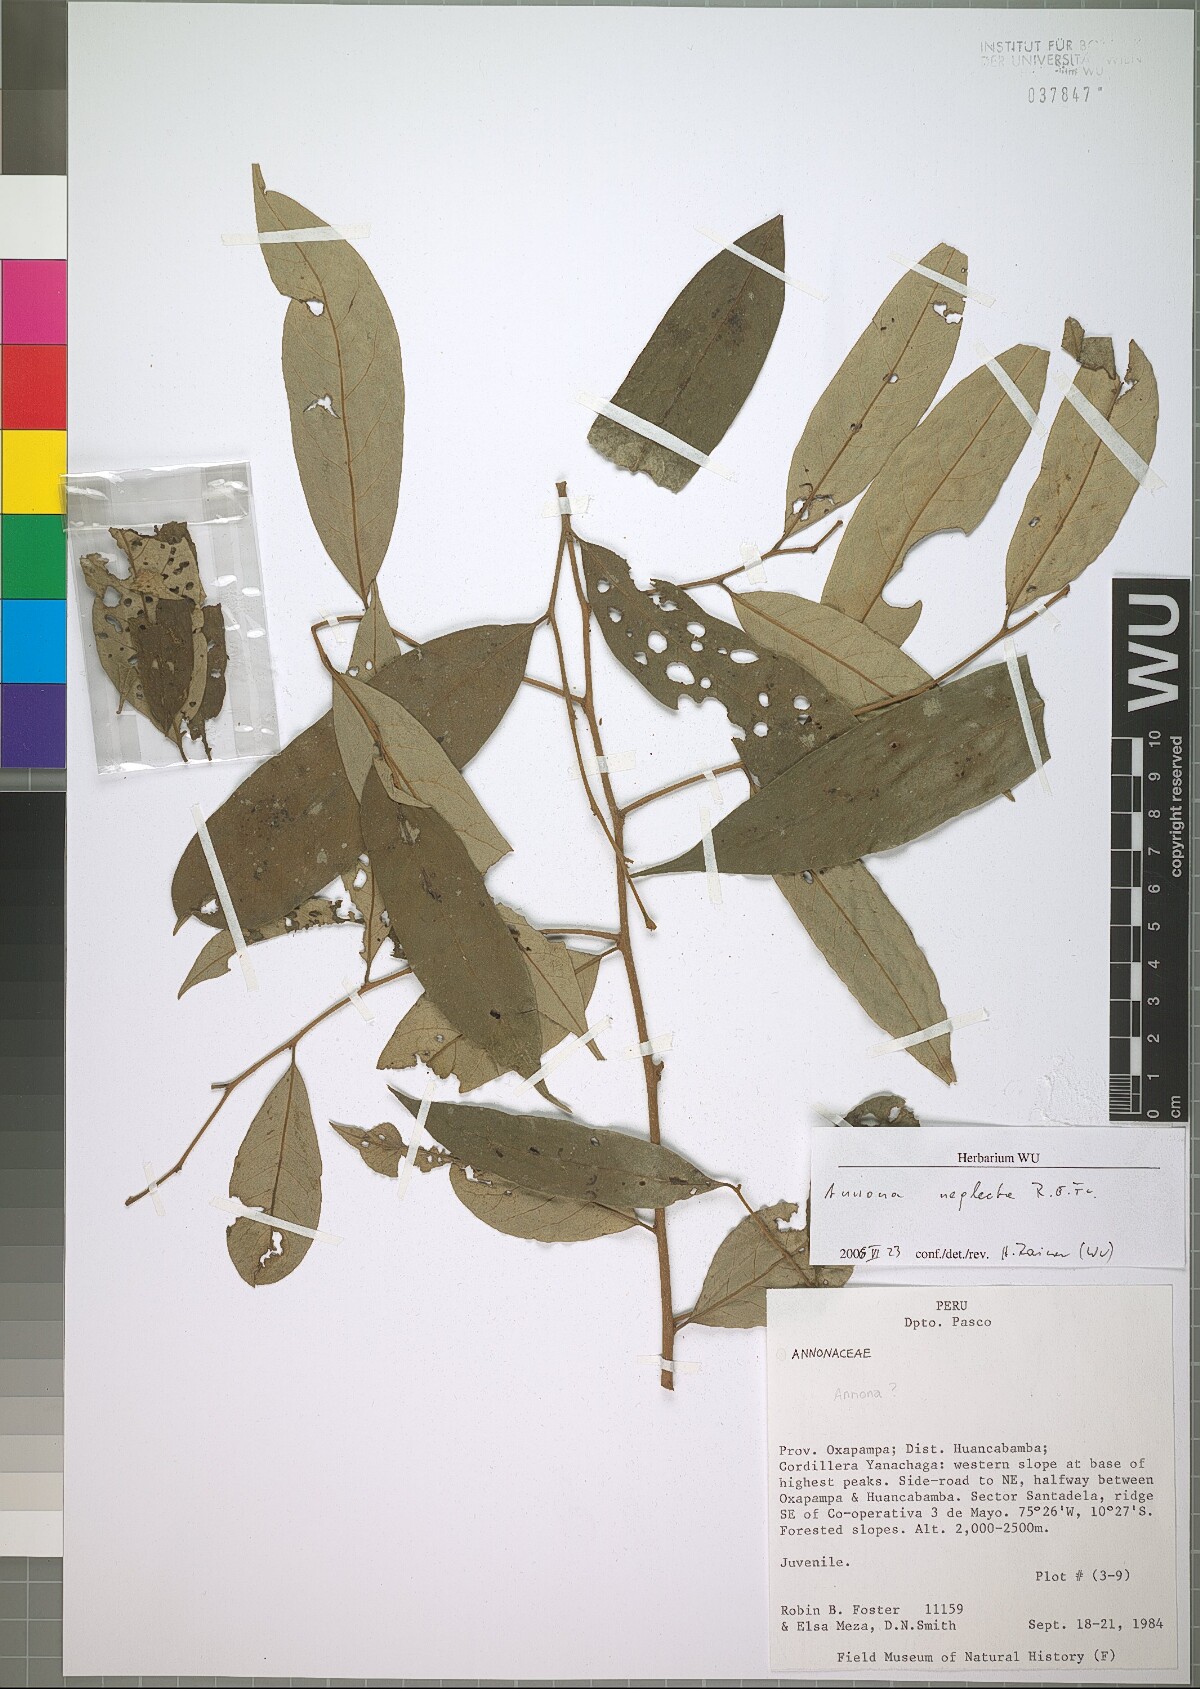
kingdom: Plantae
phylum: Tracheophyta
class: Magnoliopsida
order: Magnoliales
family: Annonaceae
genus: Annona
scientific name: Annona neglecta
